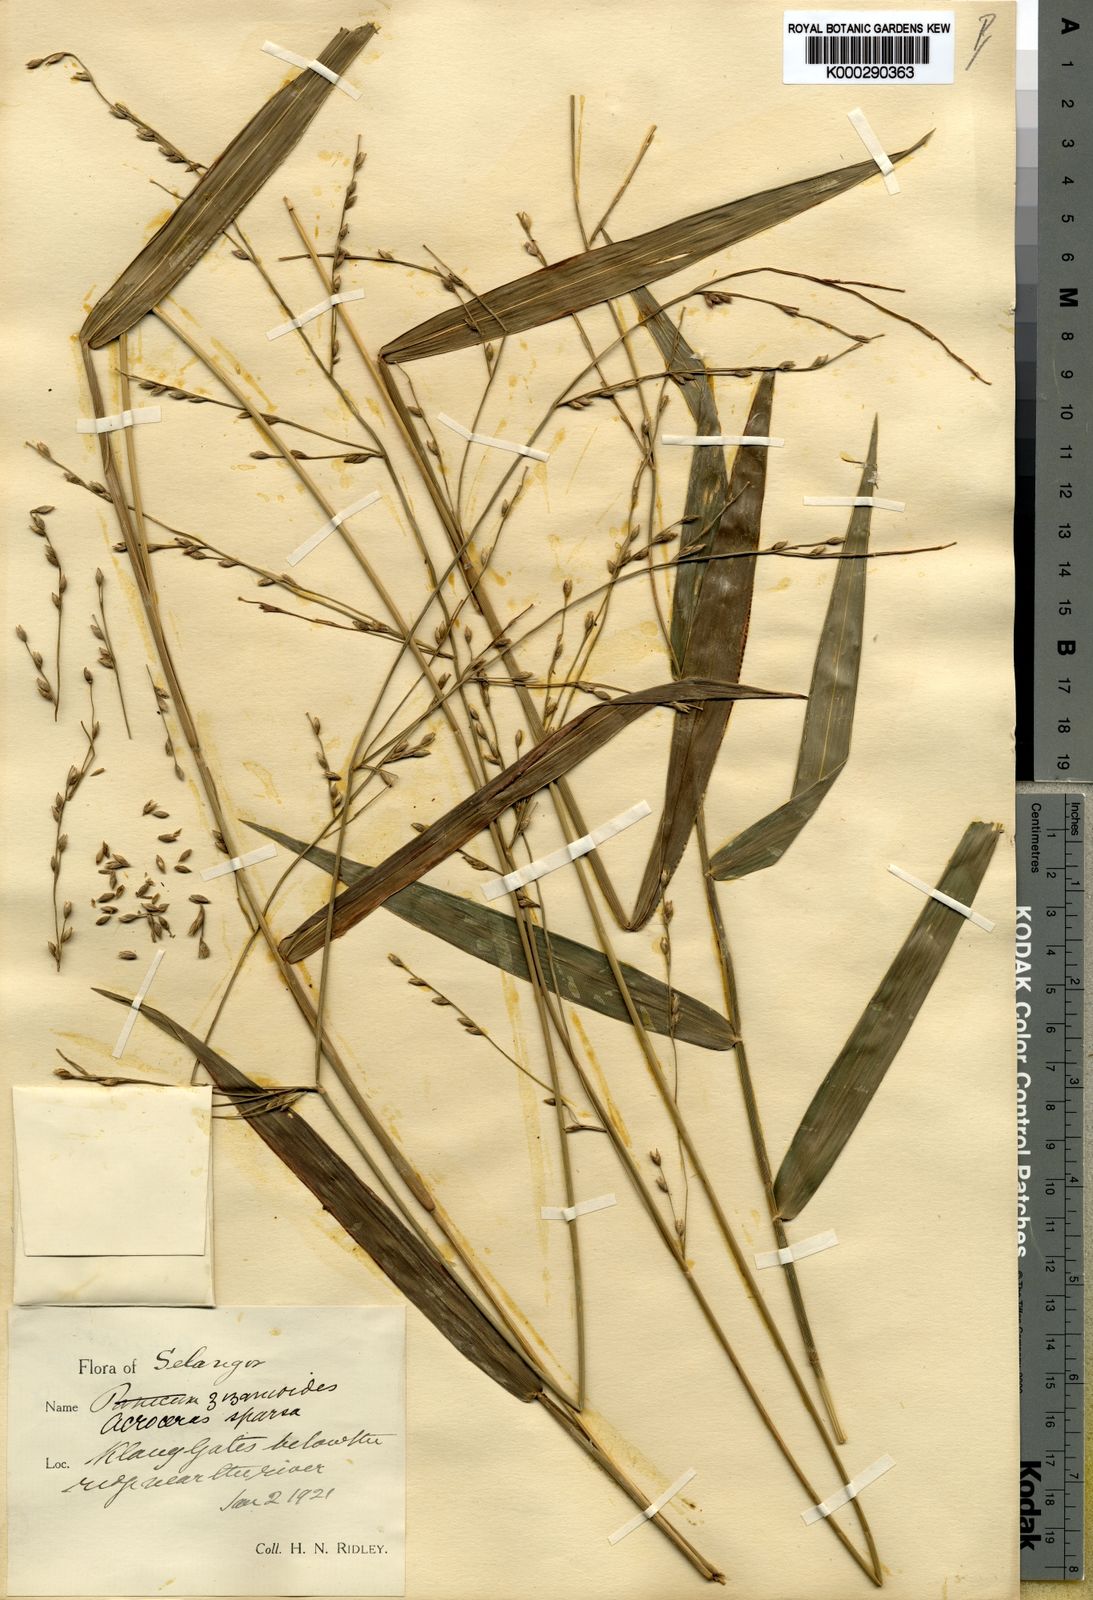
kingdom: Plantae
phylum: Tracheophyta
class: Liliopsida
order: Poales
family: Poaceae
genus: Acroceras
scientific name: Acroceras tonkinense
